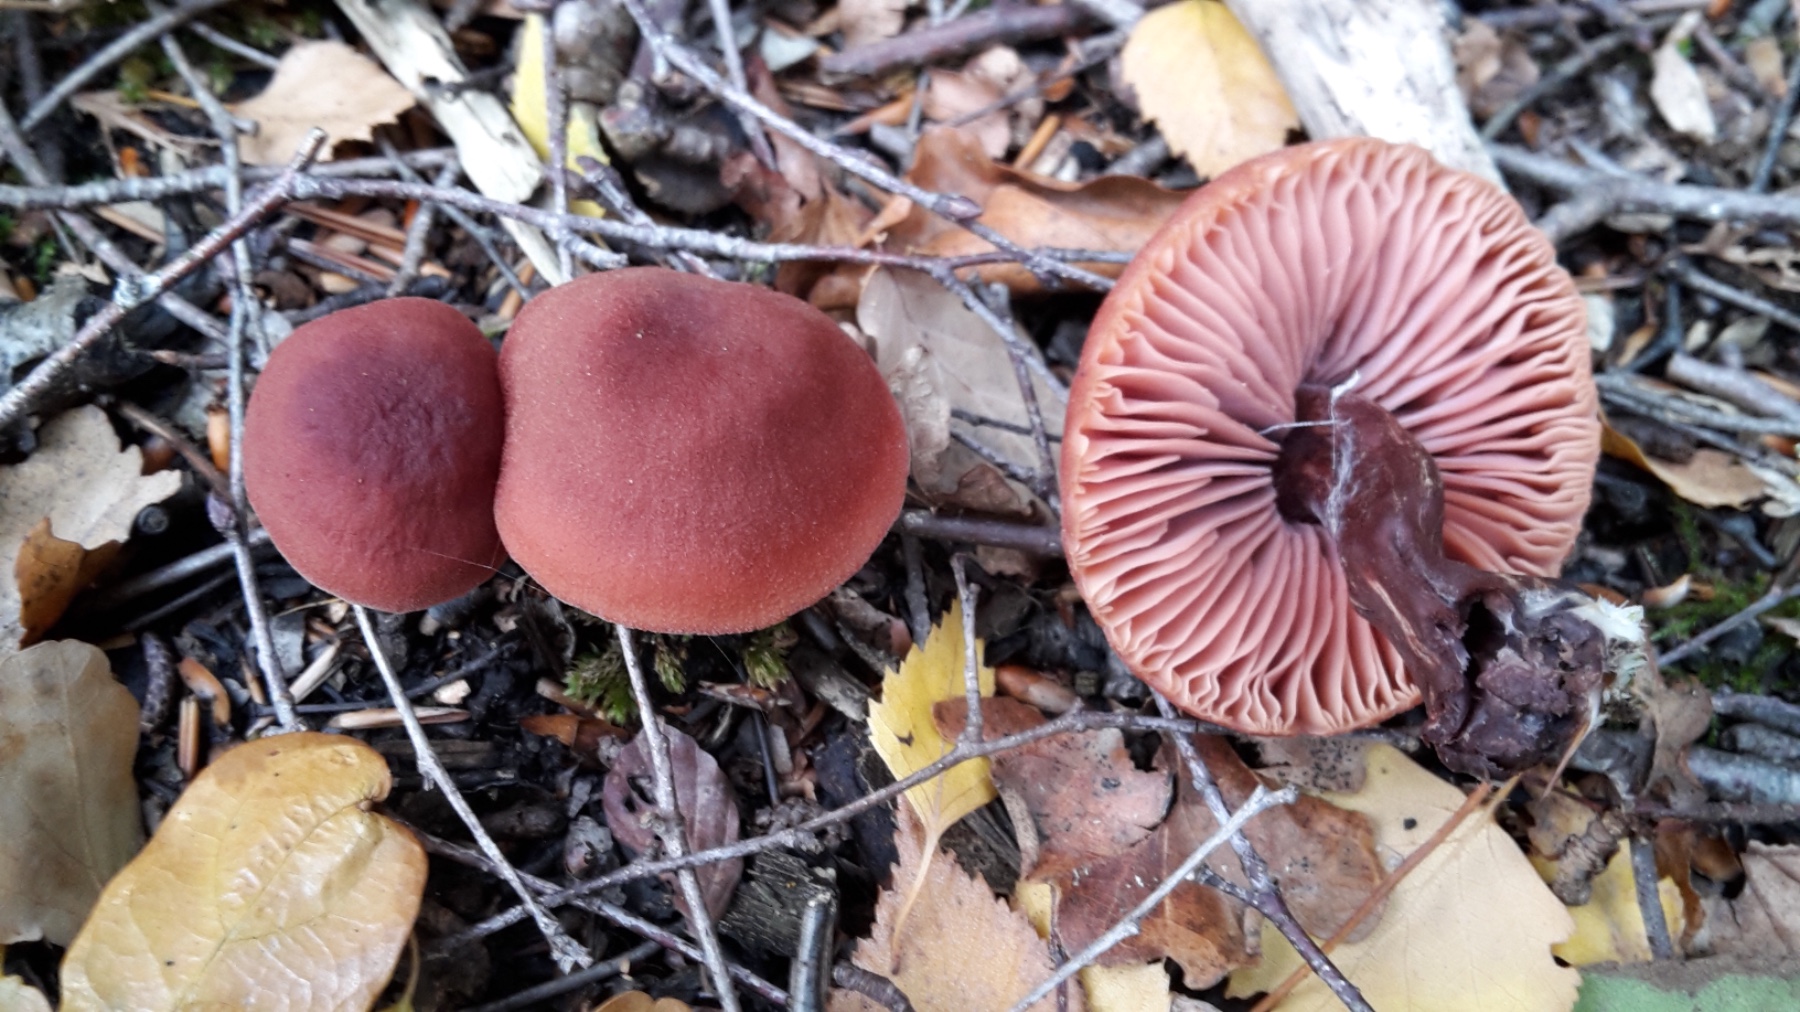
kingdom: Fungi
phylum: Basidiomycota
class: Agaricomycetes
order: Agaricales
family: Hydnangiaceae
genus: Laccaria
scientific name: Laccaria
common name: ametysthat
